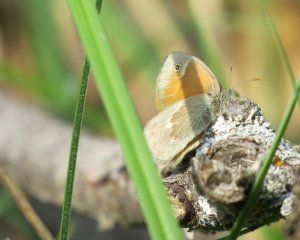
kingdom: Animalia
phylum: Arthropoda
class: Insecta
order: Lepidoptera
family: Nymphalidae
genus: Coenonympha
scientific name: Coenonympha tullia
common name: Large Heath
